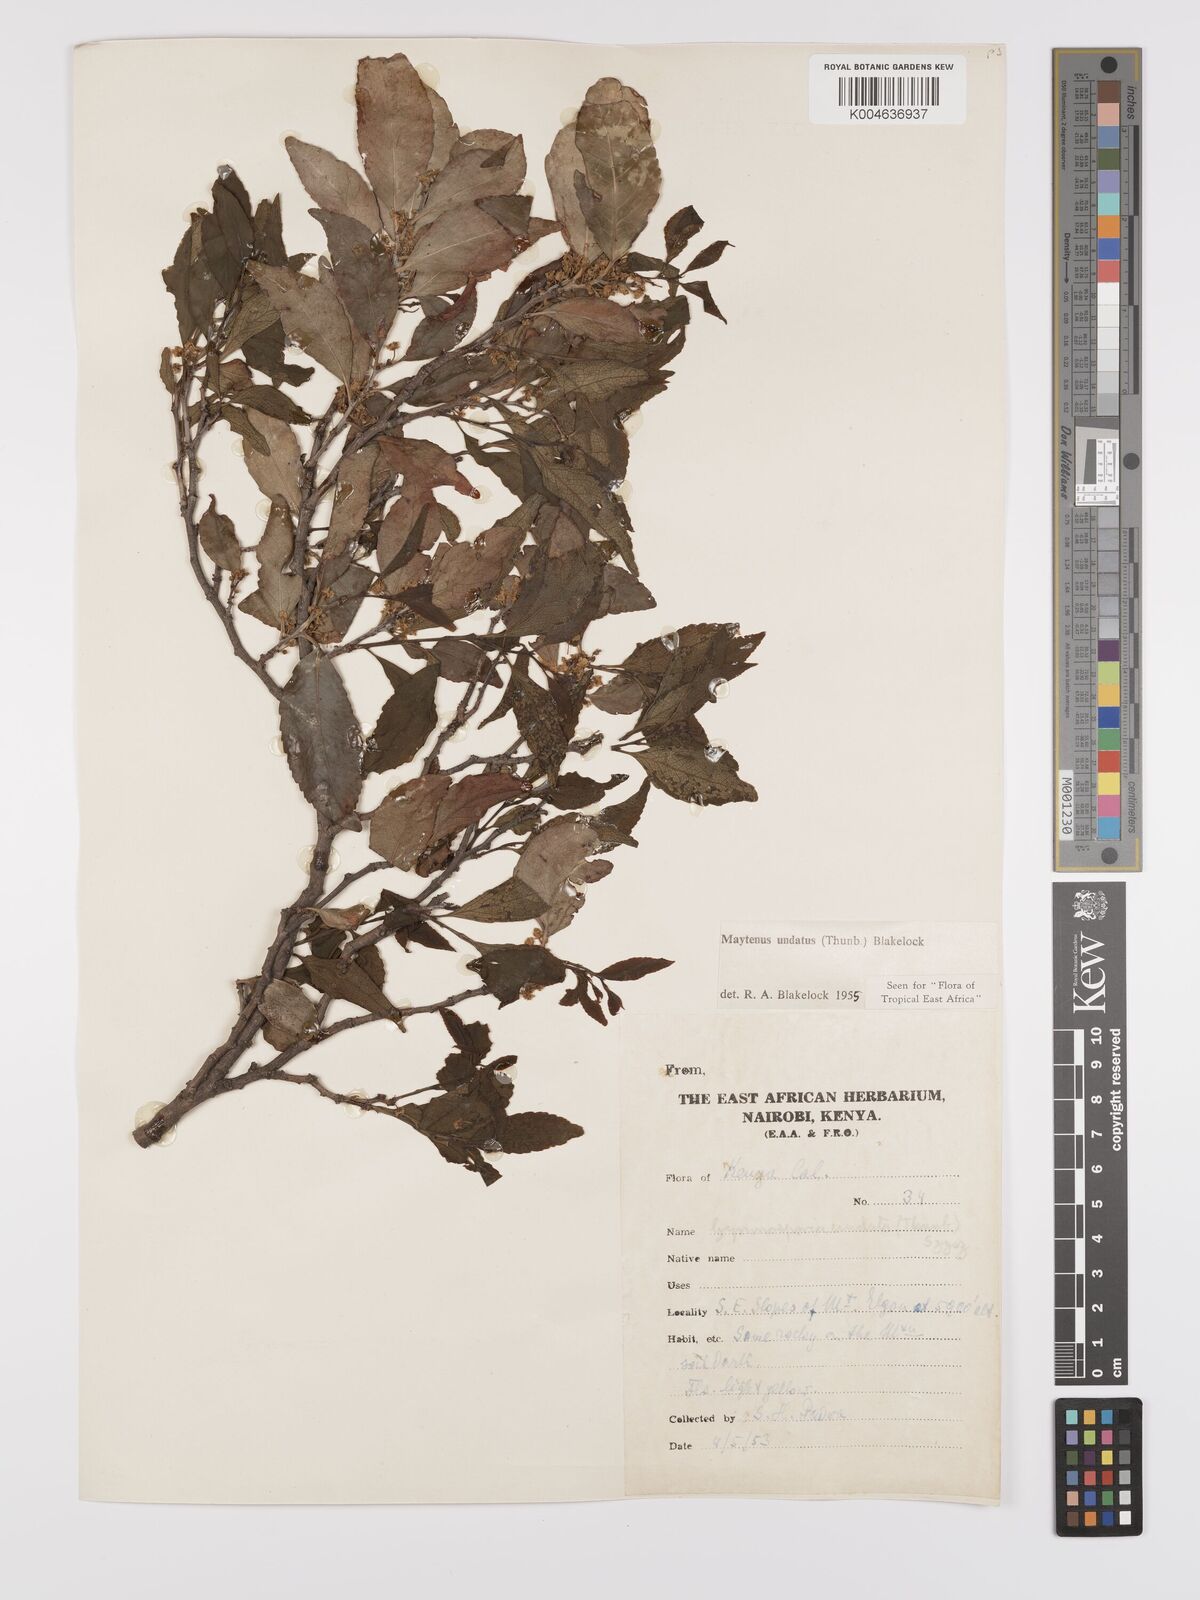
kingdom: Plantae
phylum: Tracheophyta
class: Magnoliopsida
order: Celastrales
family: Celastraceae
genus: Gymnosporia
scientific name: Gymnosporia undata
